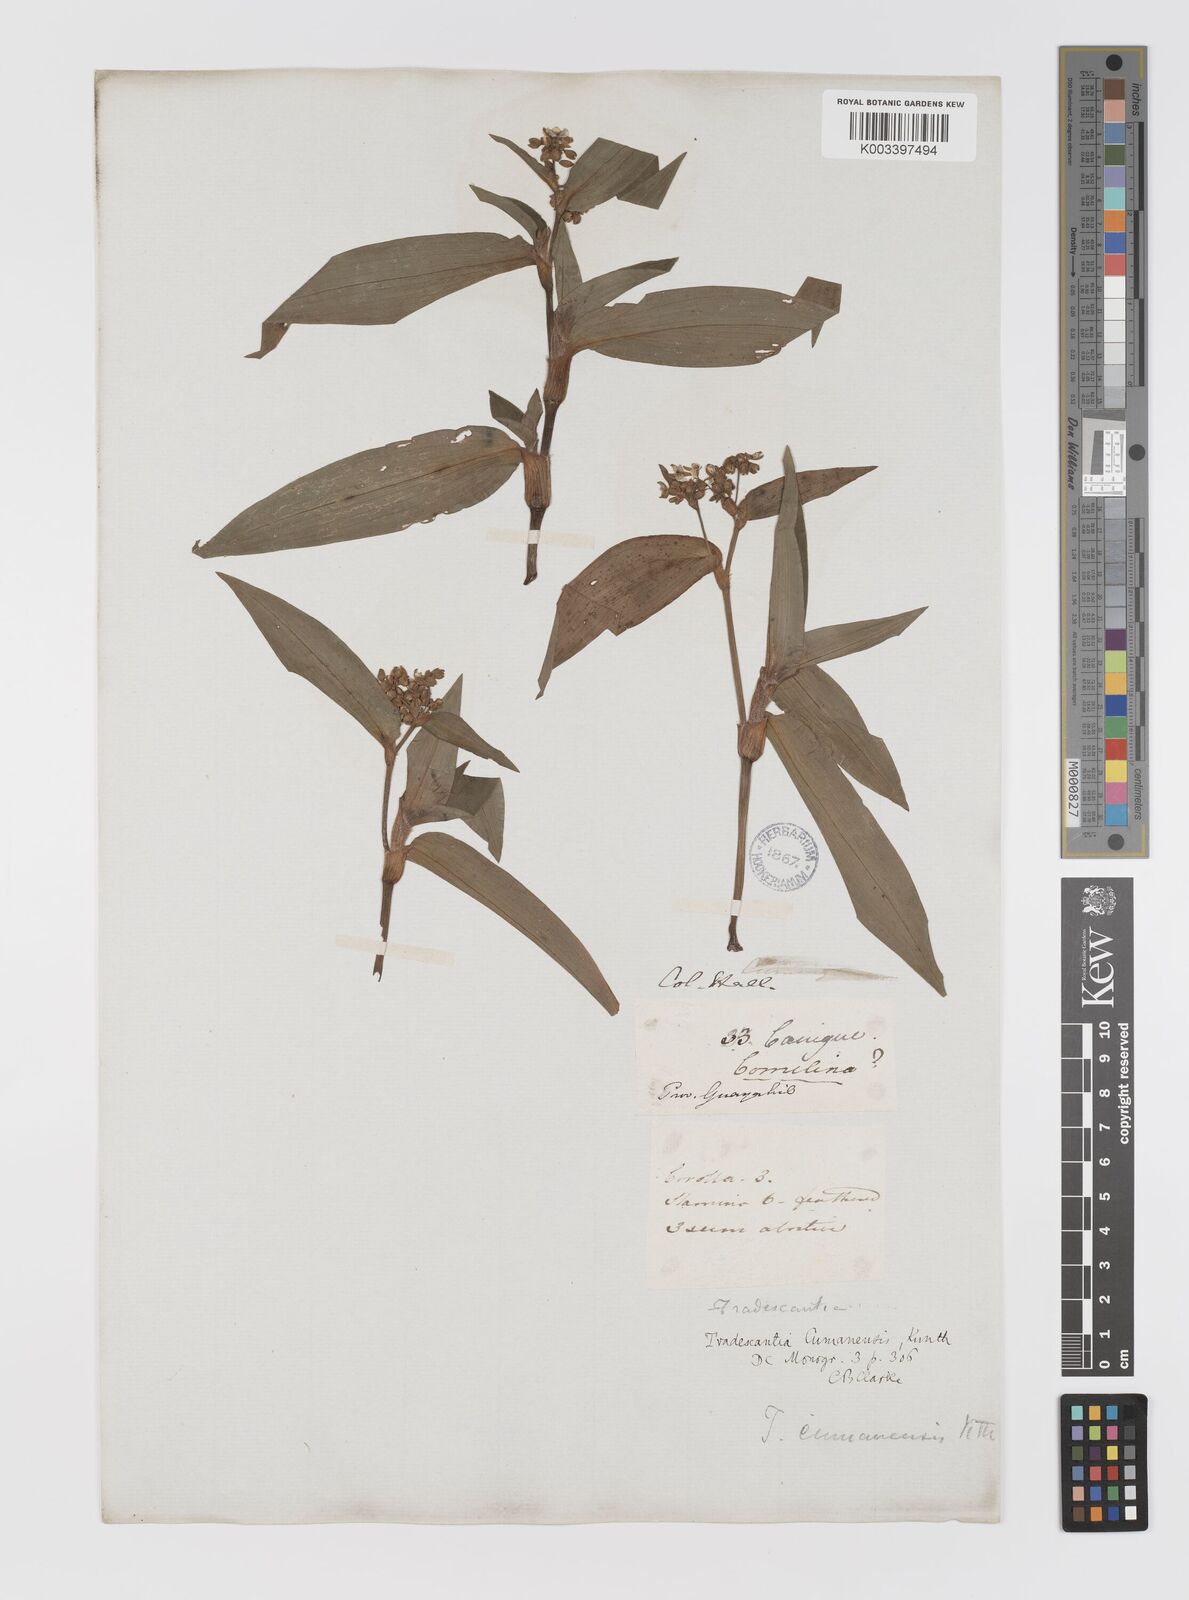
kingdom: Plantae
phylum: Tracheophyta
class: Liliopsida
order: Commelinales
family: Commelinaceae
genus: Callisia
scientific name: Callisia serrulata
